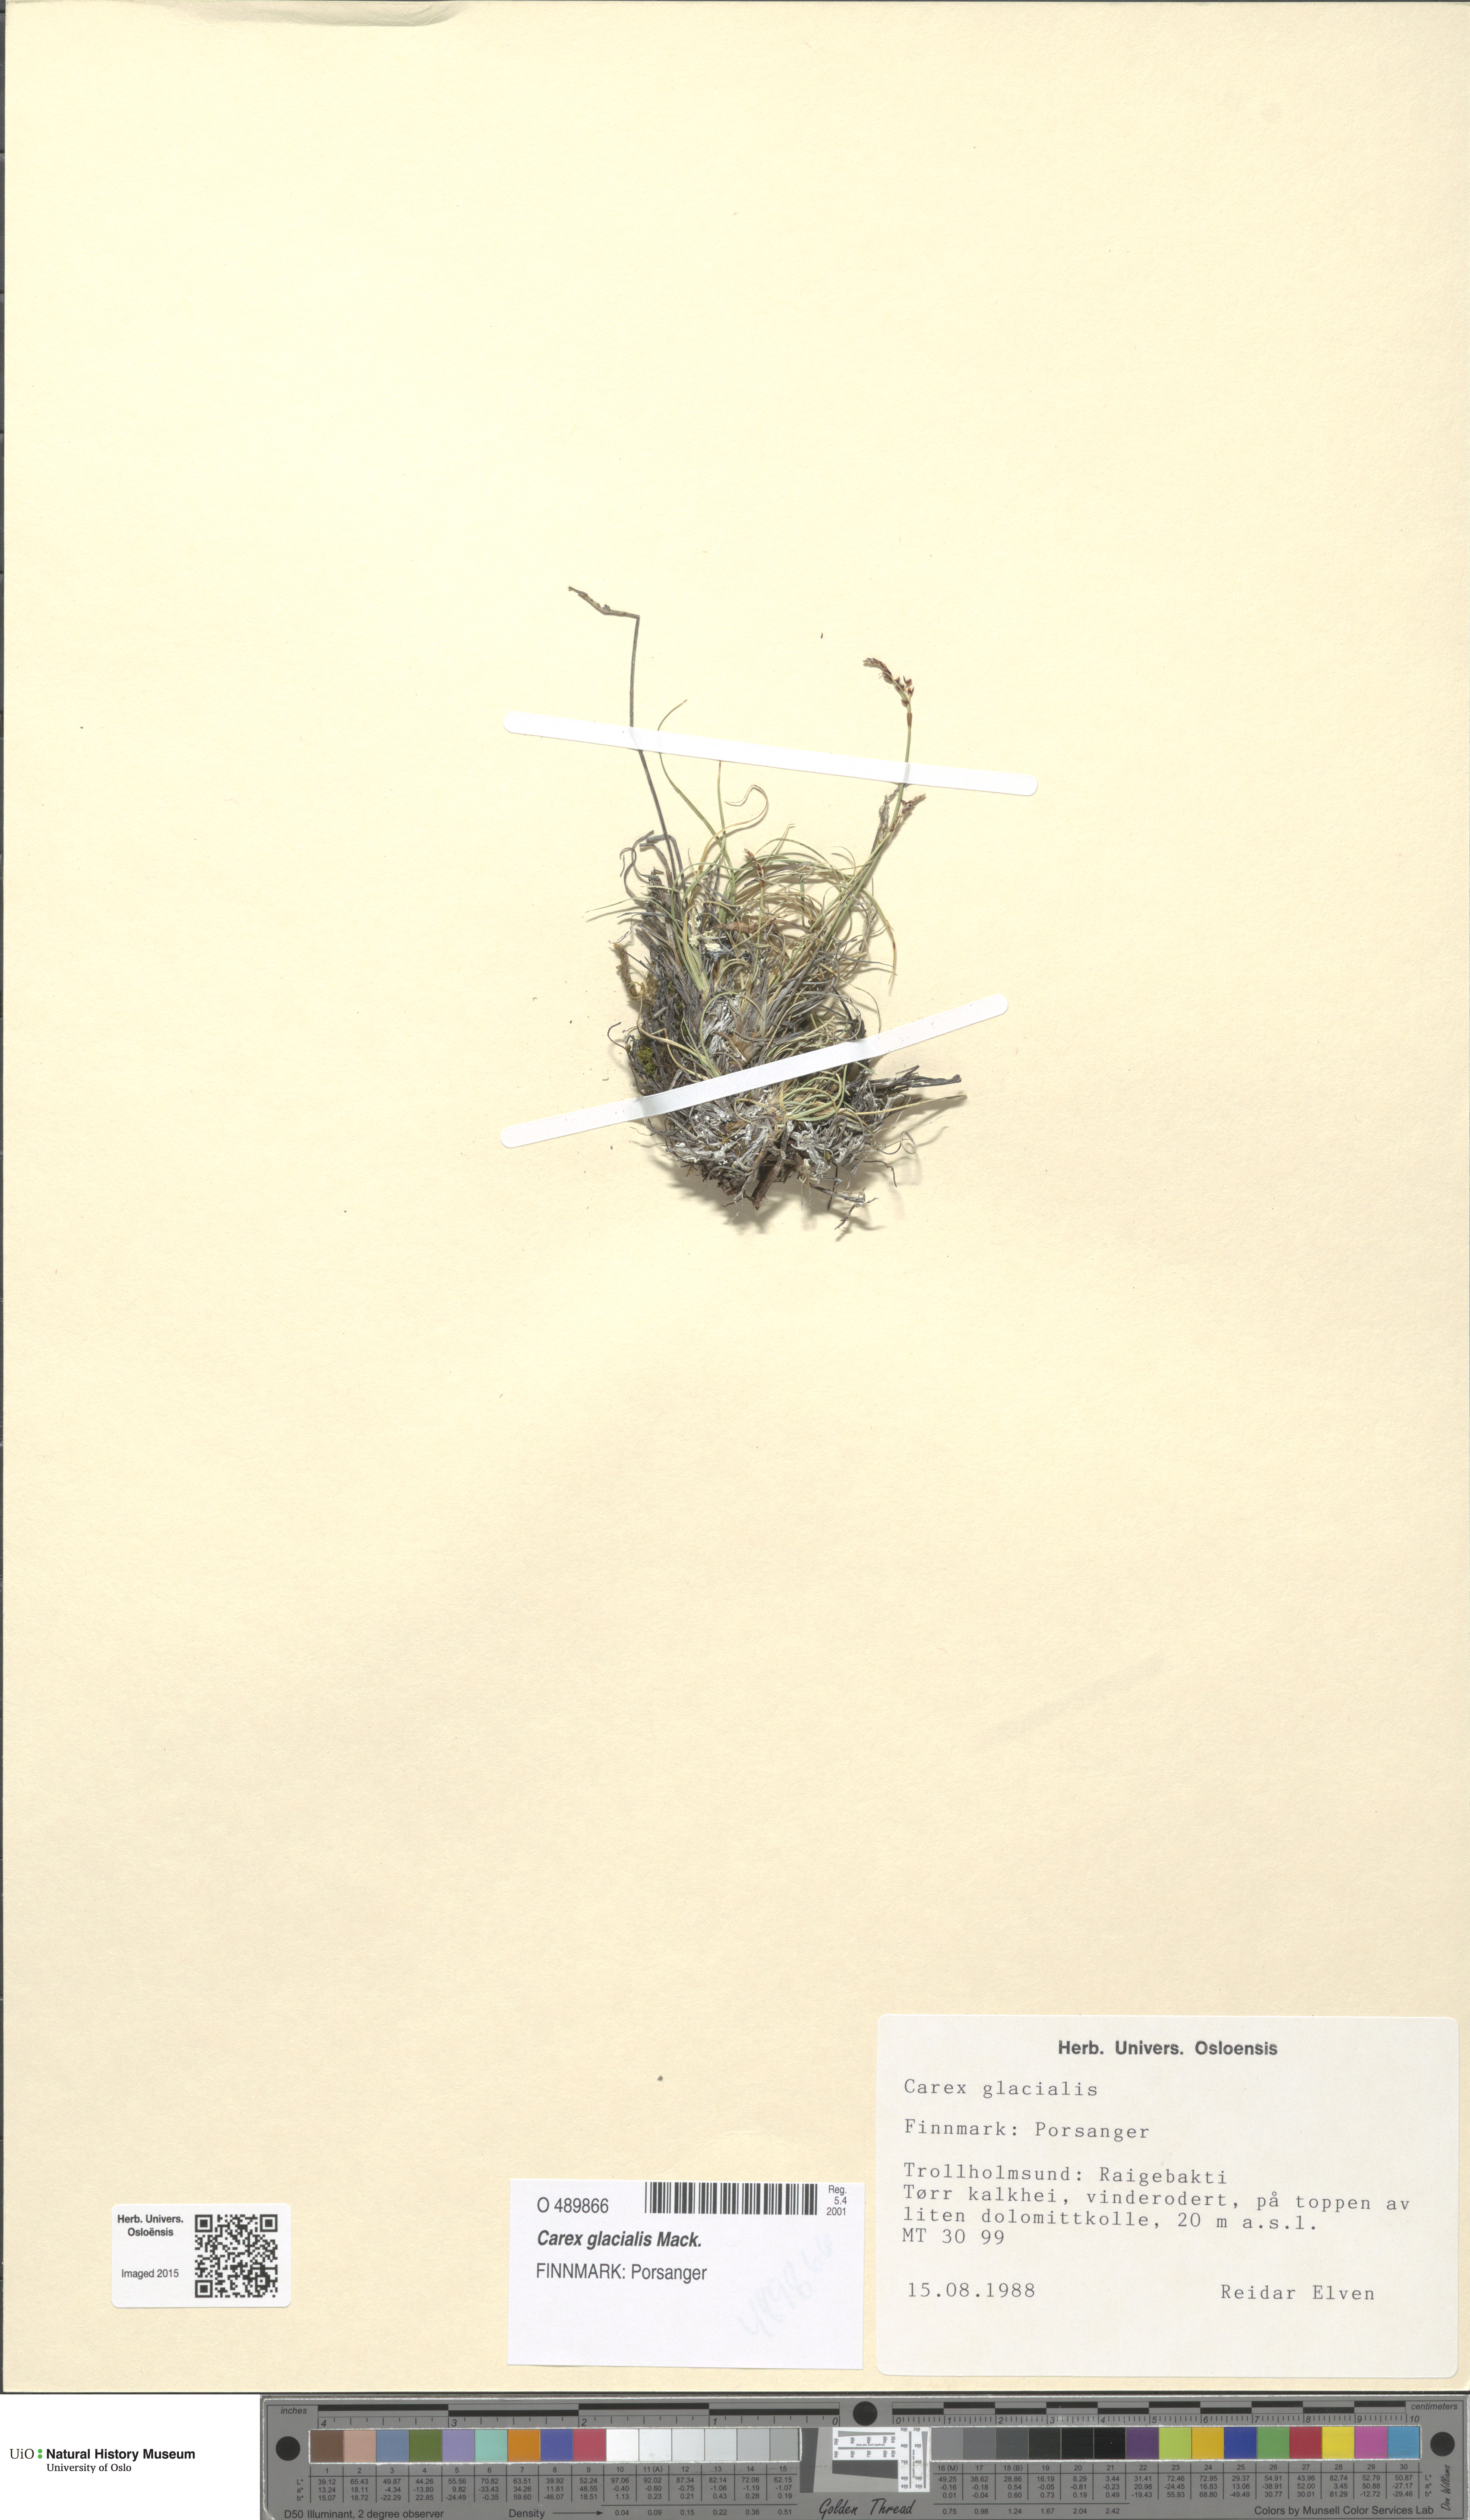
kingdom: Plantae
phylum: Tracheophyta
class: Liliopsida
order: Poales
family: Cyperaceae
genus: Carex
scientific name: Carex glacialis
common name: Newfoundland sedge
